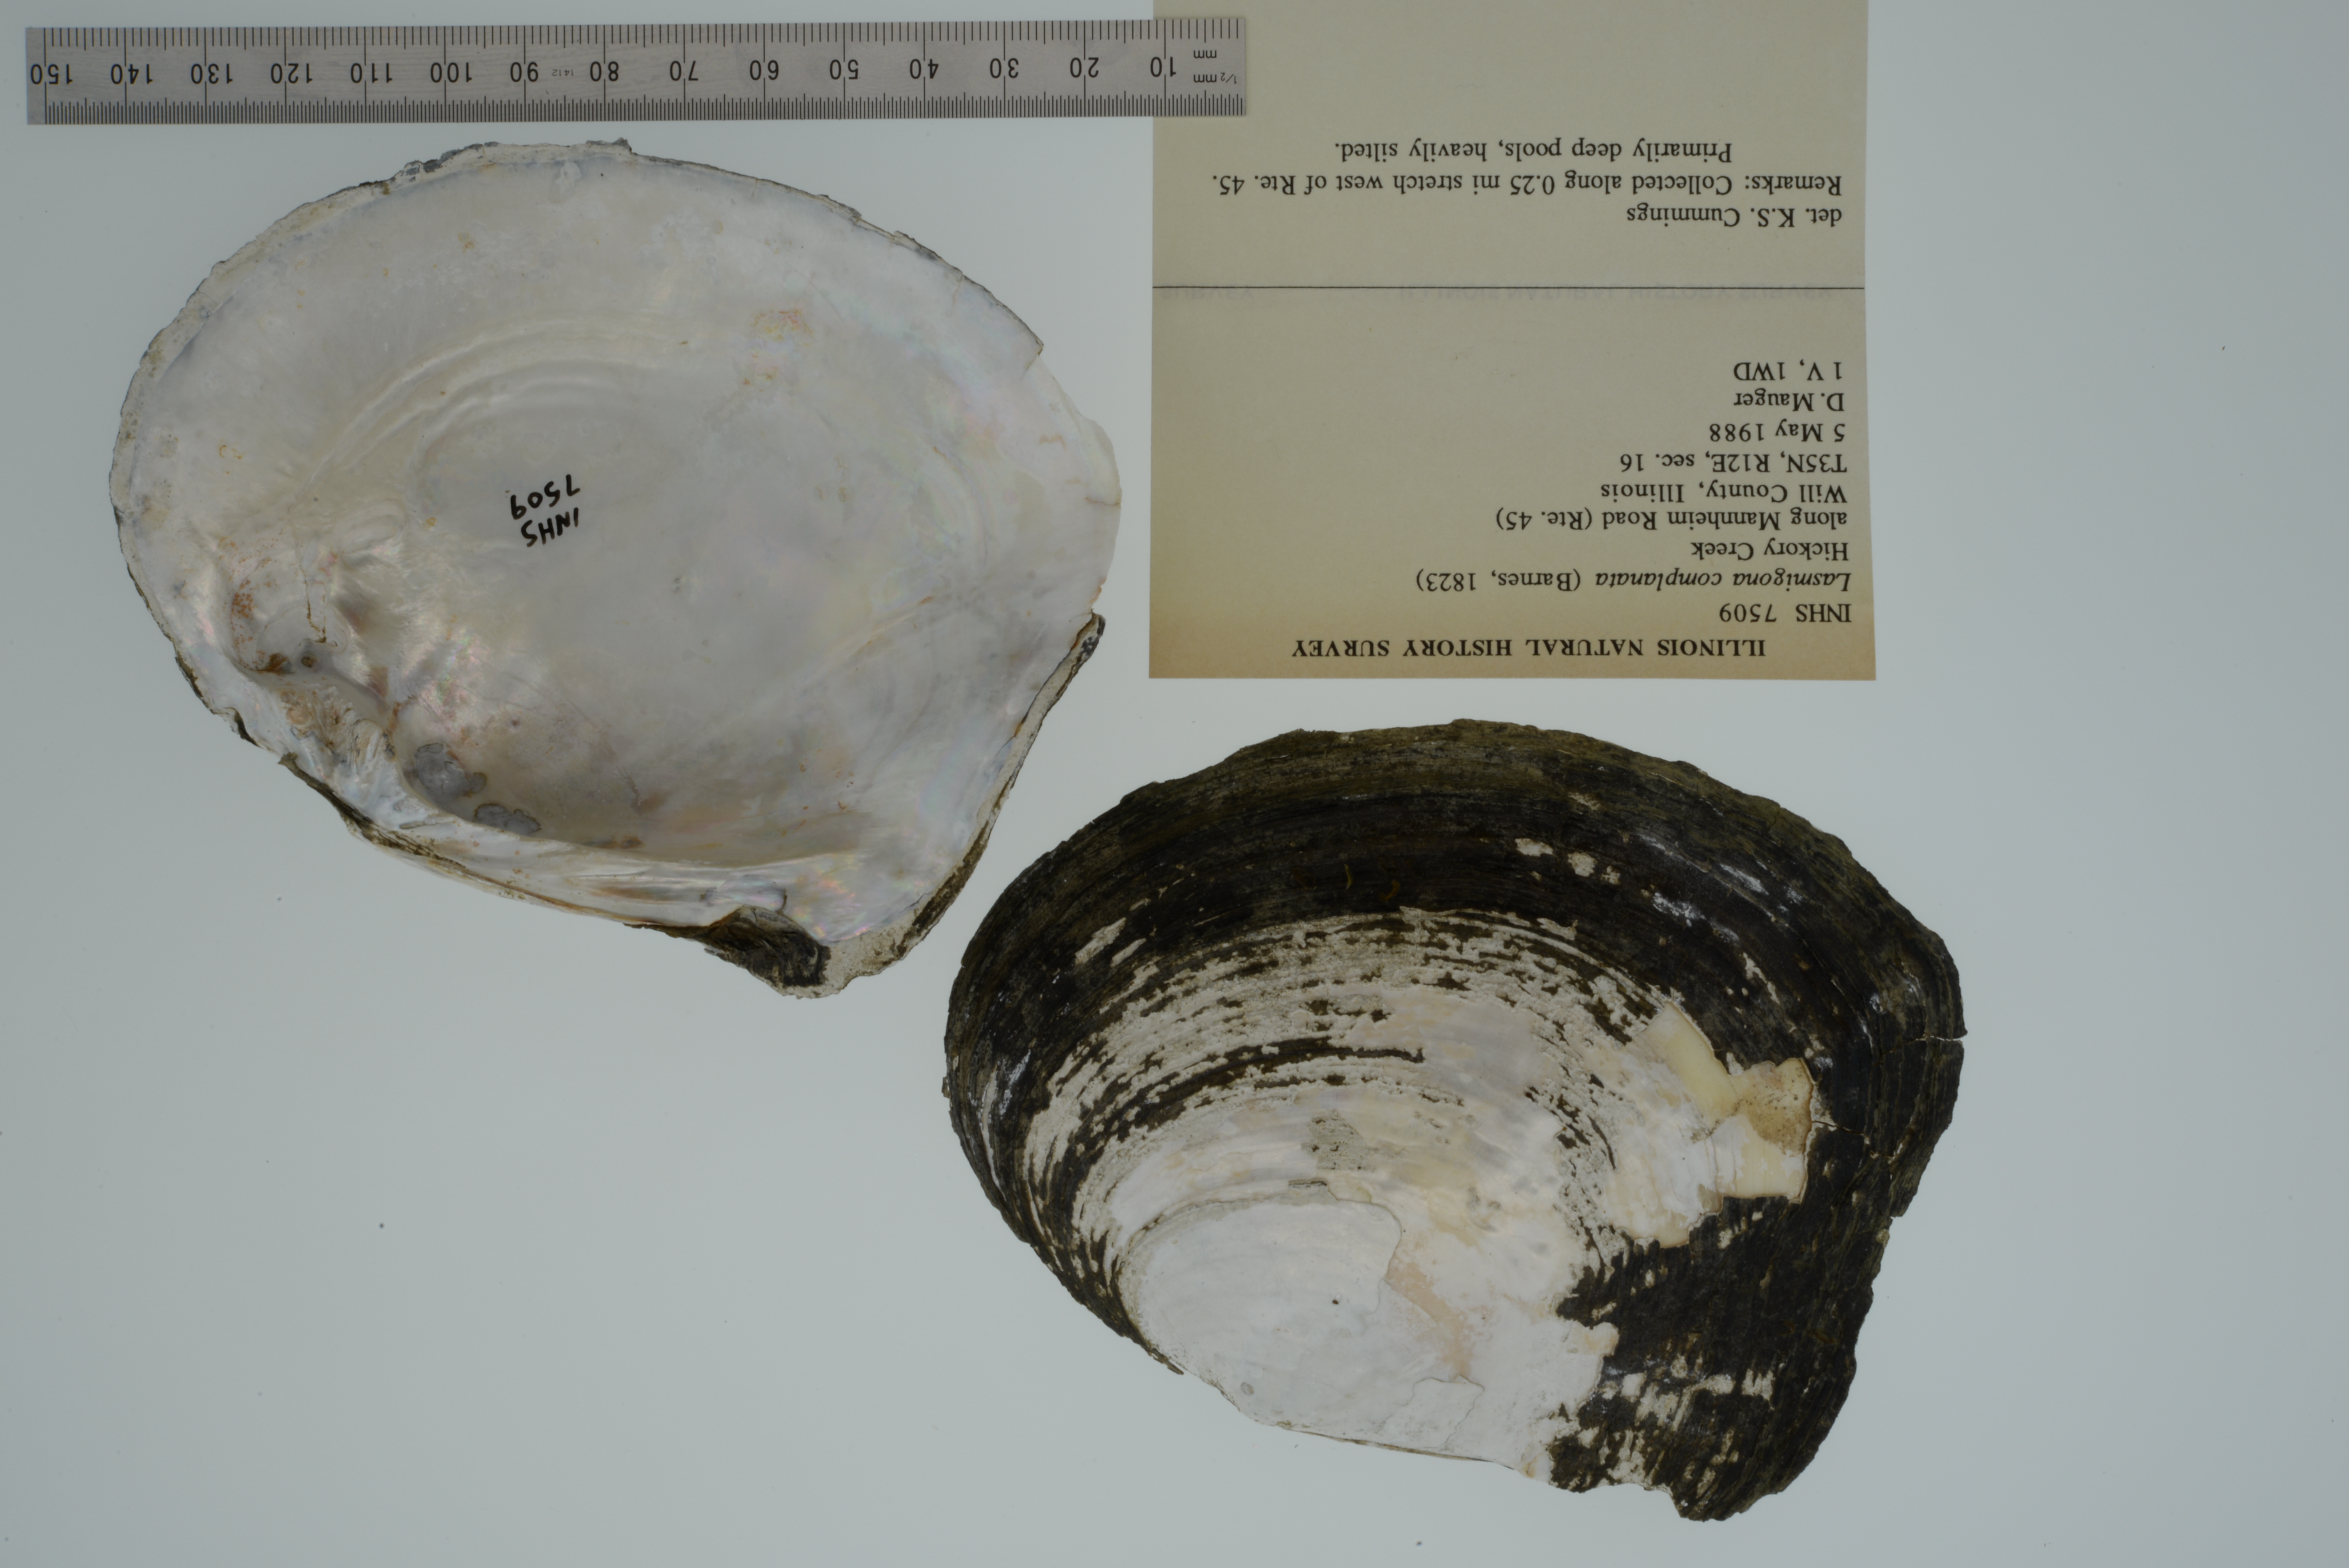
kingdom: Animalia
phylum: Mollusca
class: Bivalvia
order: Unionida
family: Unionidae
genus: Lasmigona
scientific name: Lasmigona complanata
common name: White heelsplitter
